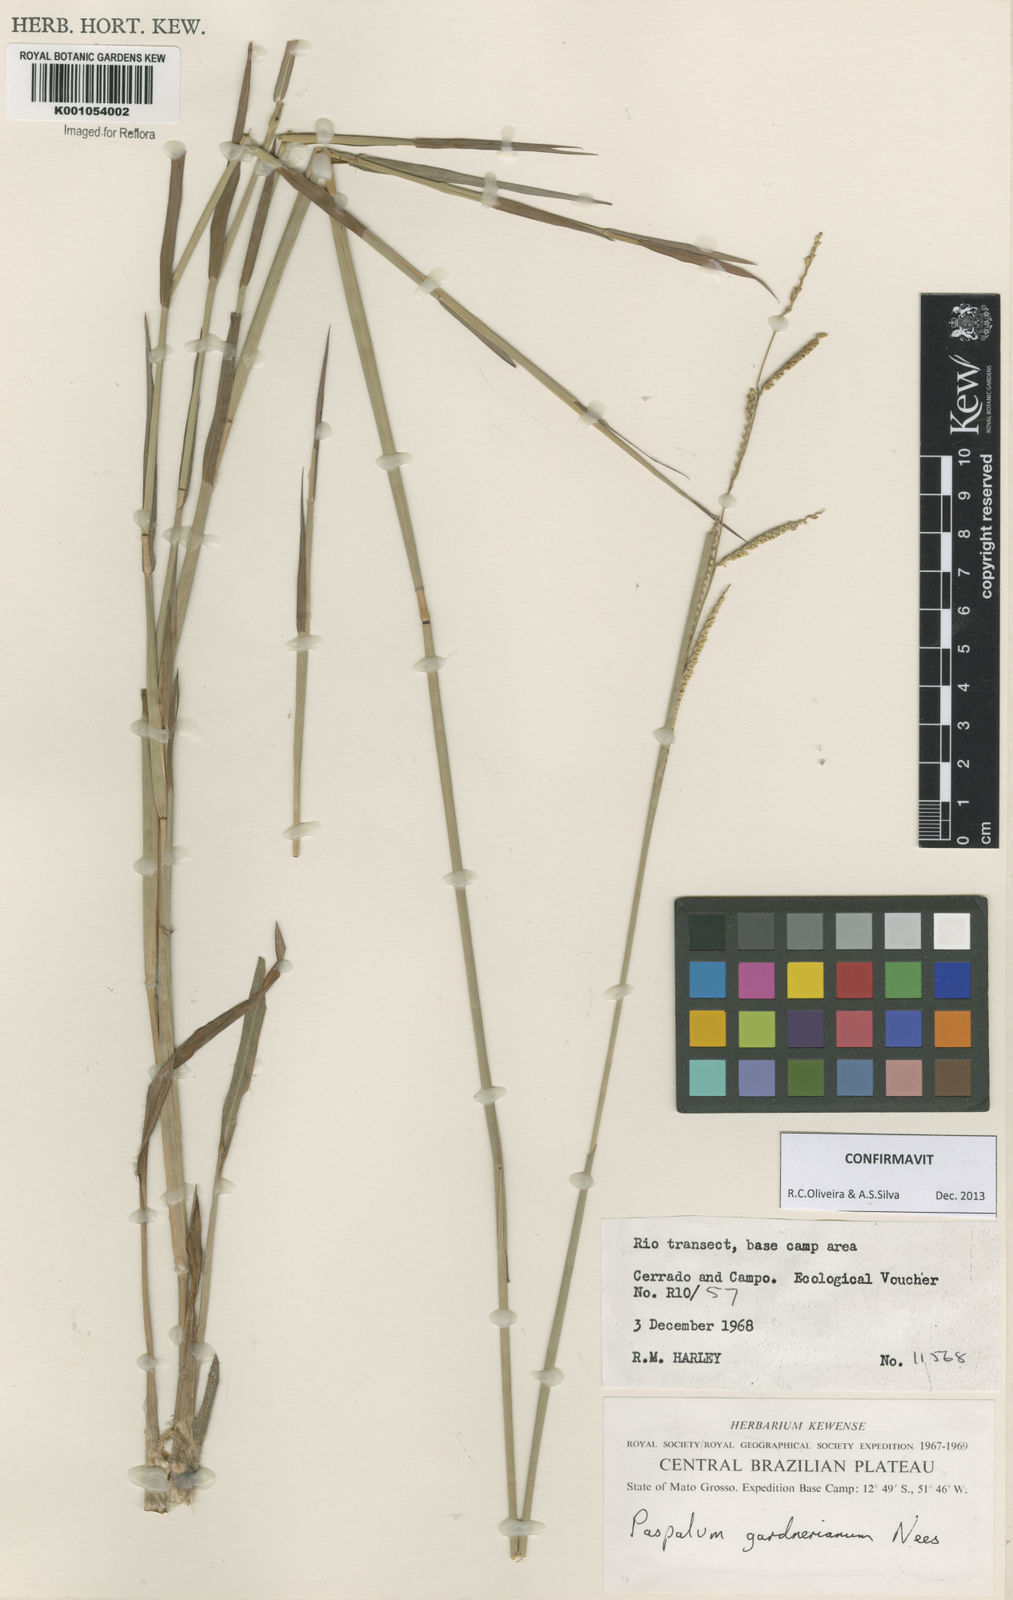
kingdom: Plantae
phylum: Tracheophyta
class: Liliopsida
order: Poales
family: Poaceae
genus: Paspalum
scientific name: Paspalum gardnerianum
